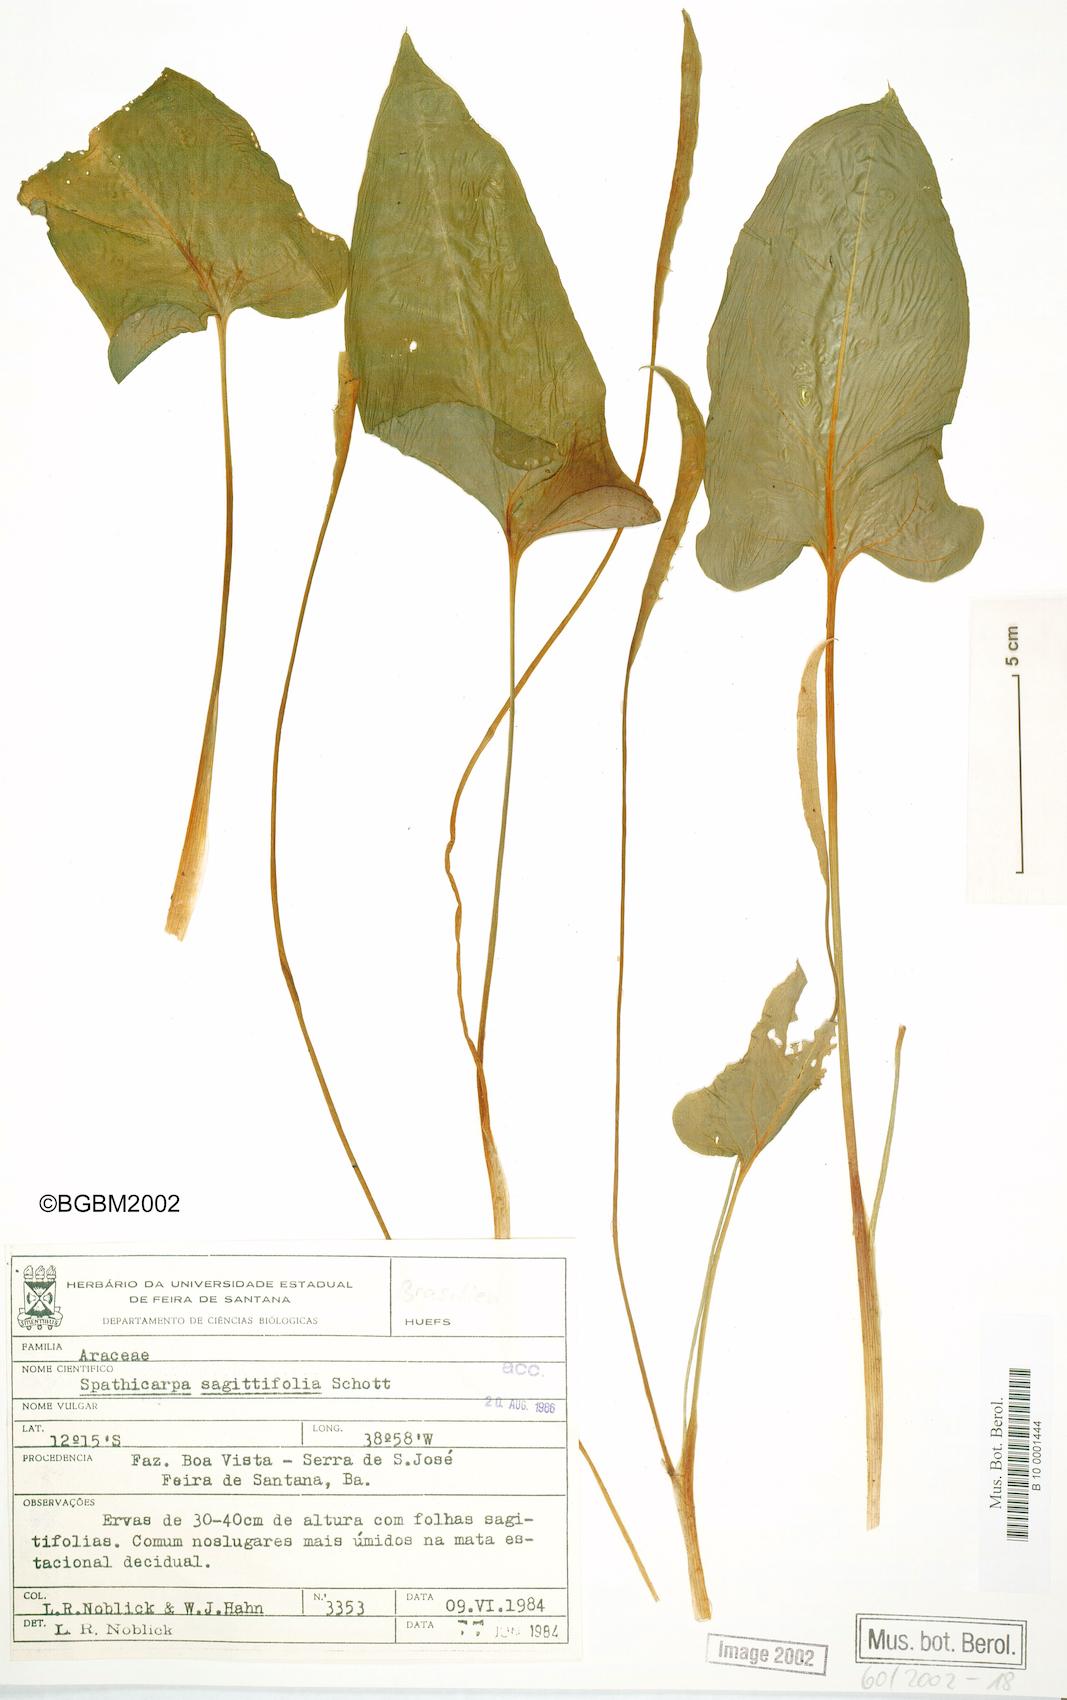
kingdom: Plantae
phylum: Tracheophyta
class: Liliopsida
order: Alismatales
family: Araceae
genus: Spathicarpa
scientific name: Spathicarpa hastifolia
